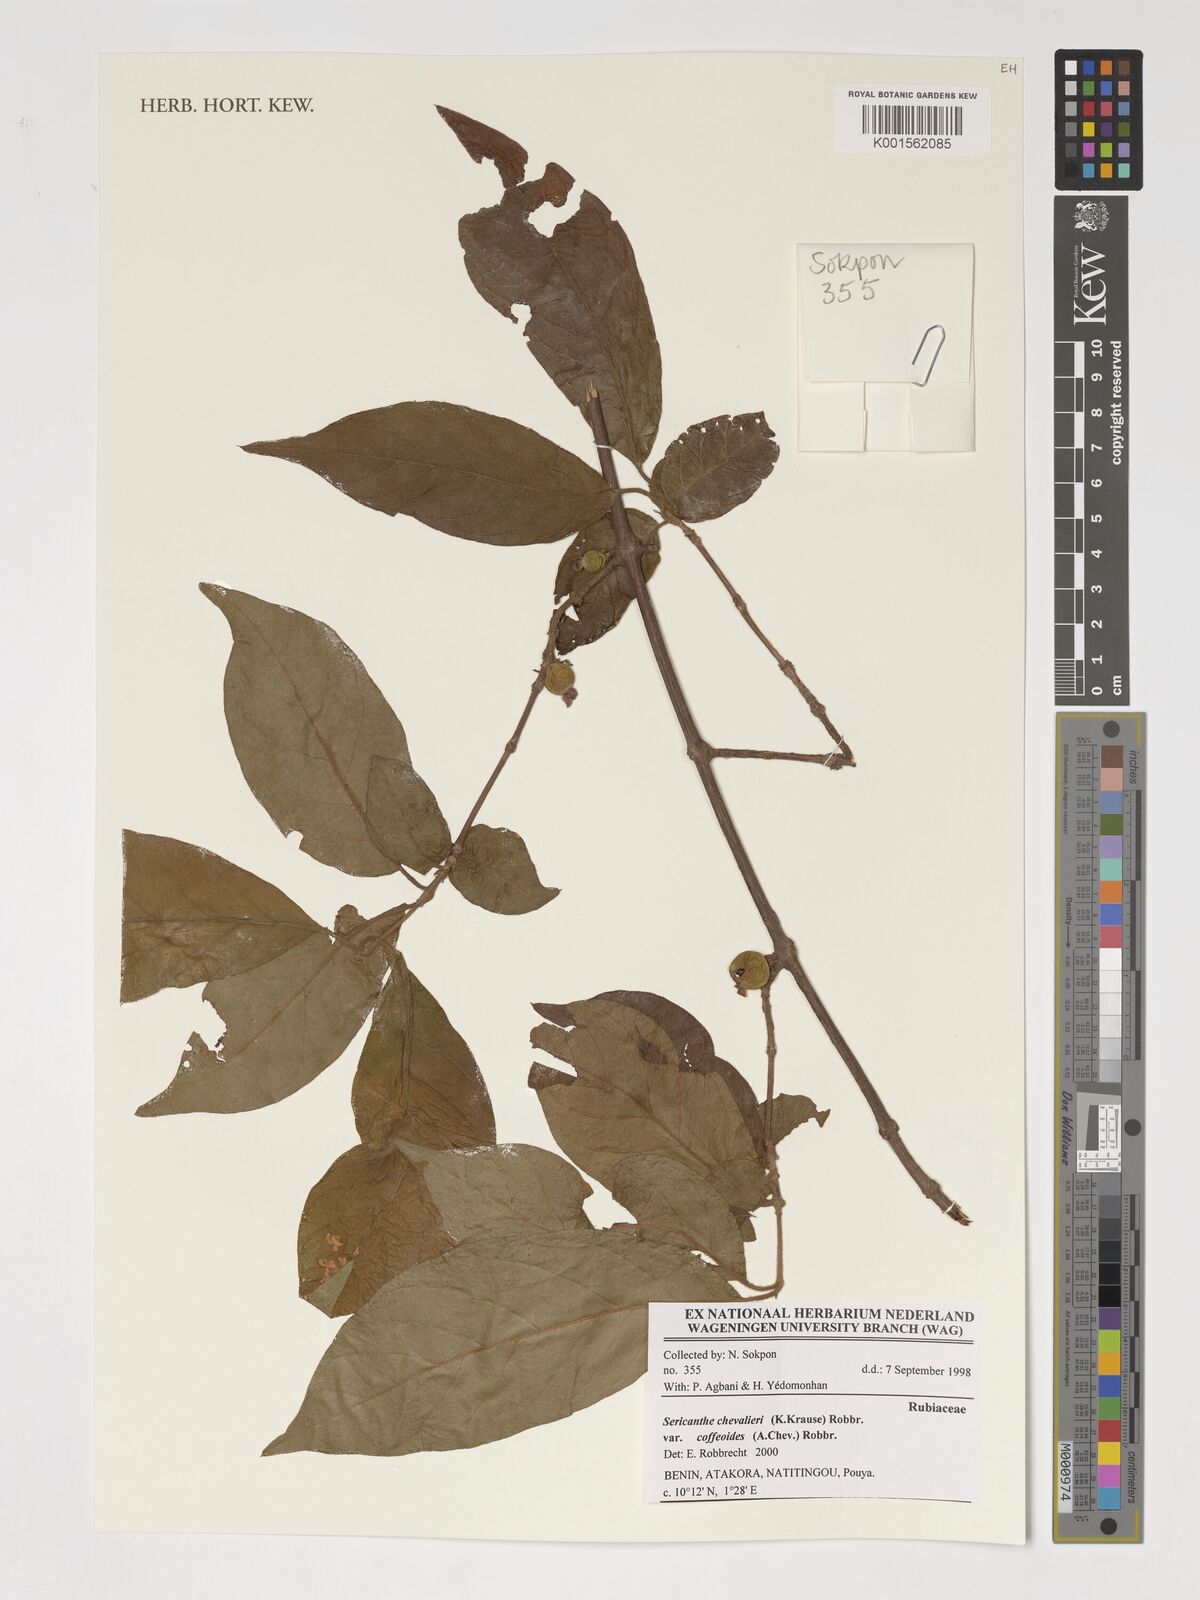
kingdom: Plantae
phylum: Tracheophyta
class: Magnoliopsida
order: Gentianales
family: Rubiaceae
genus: Sericanthe
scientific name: Sericanthe chevalieri
